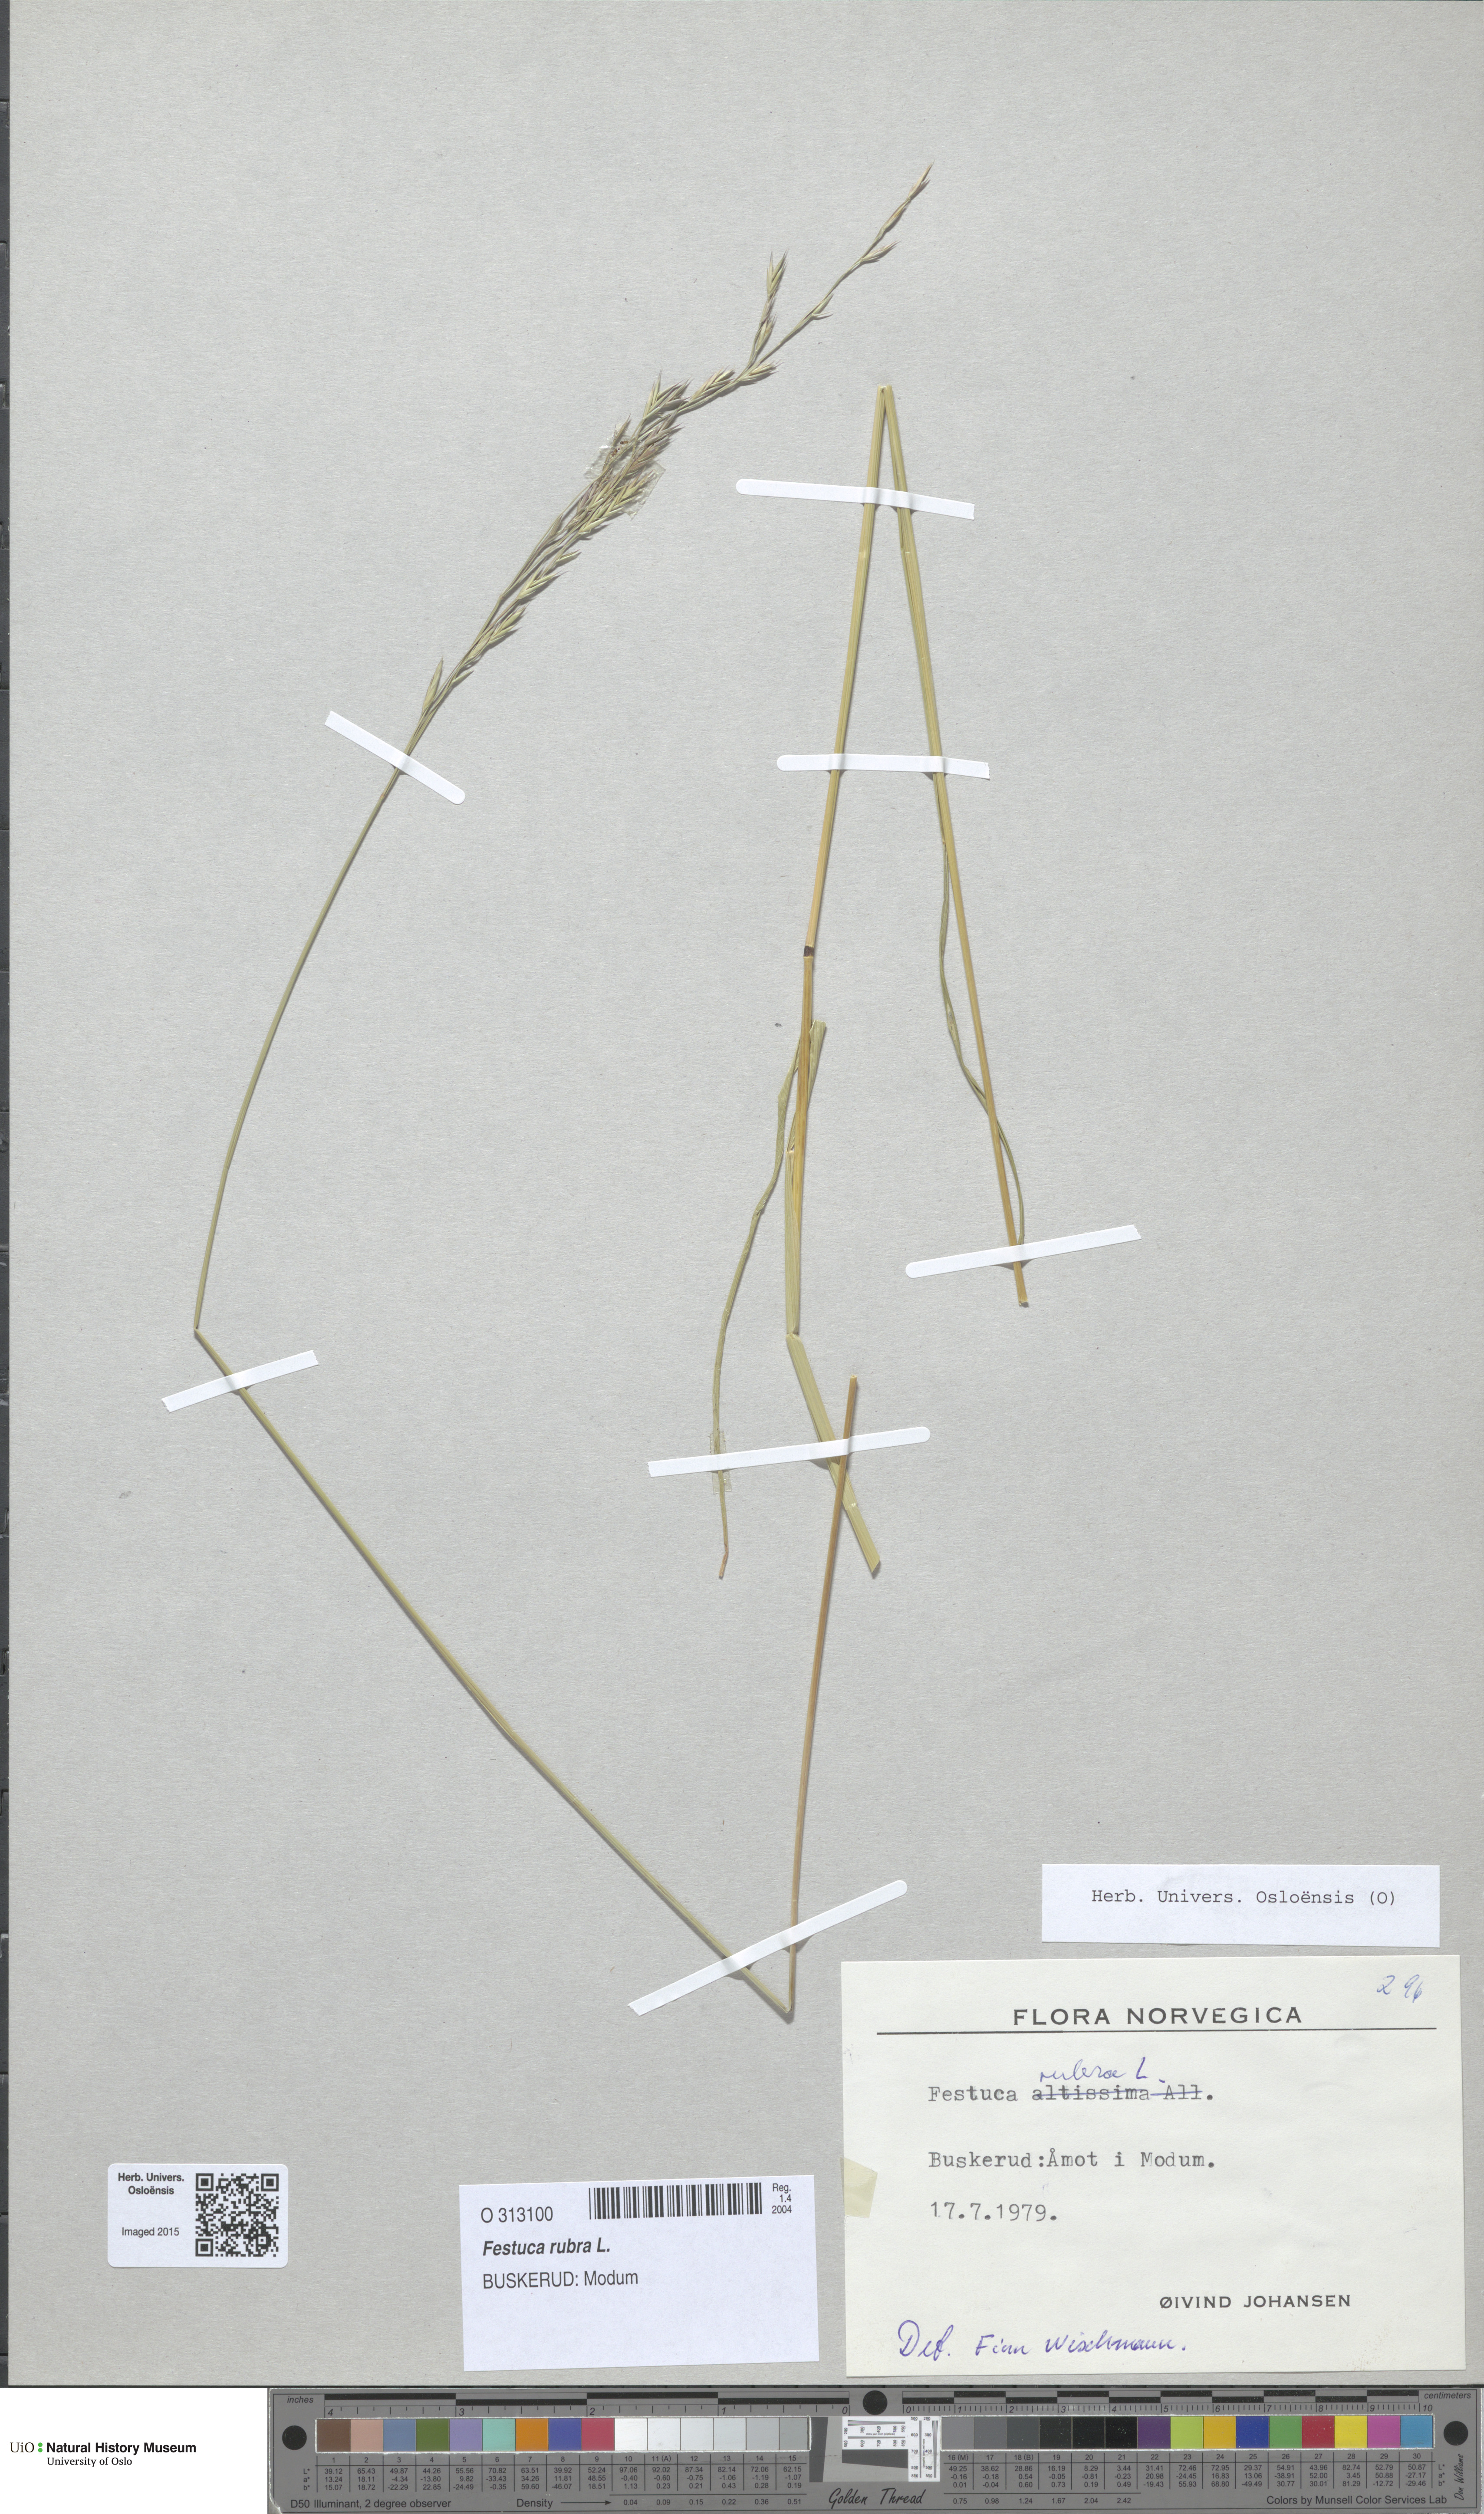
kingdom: Plantae
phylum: Tracheophyta
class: Liliopsida
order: Poales
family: Poaceae
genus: Festuca
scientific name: Festuca rubra
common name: Red fescue
